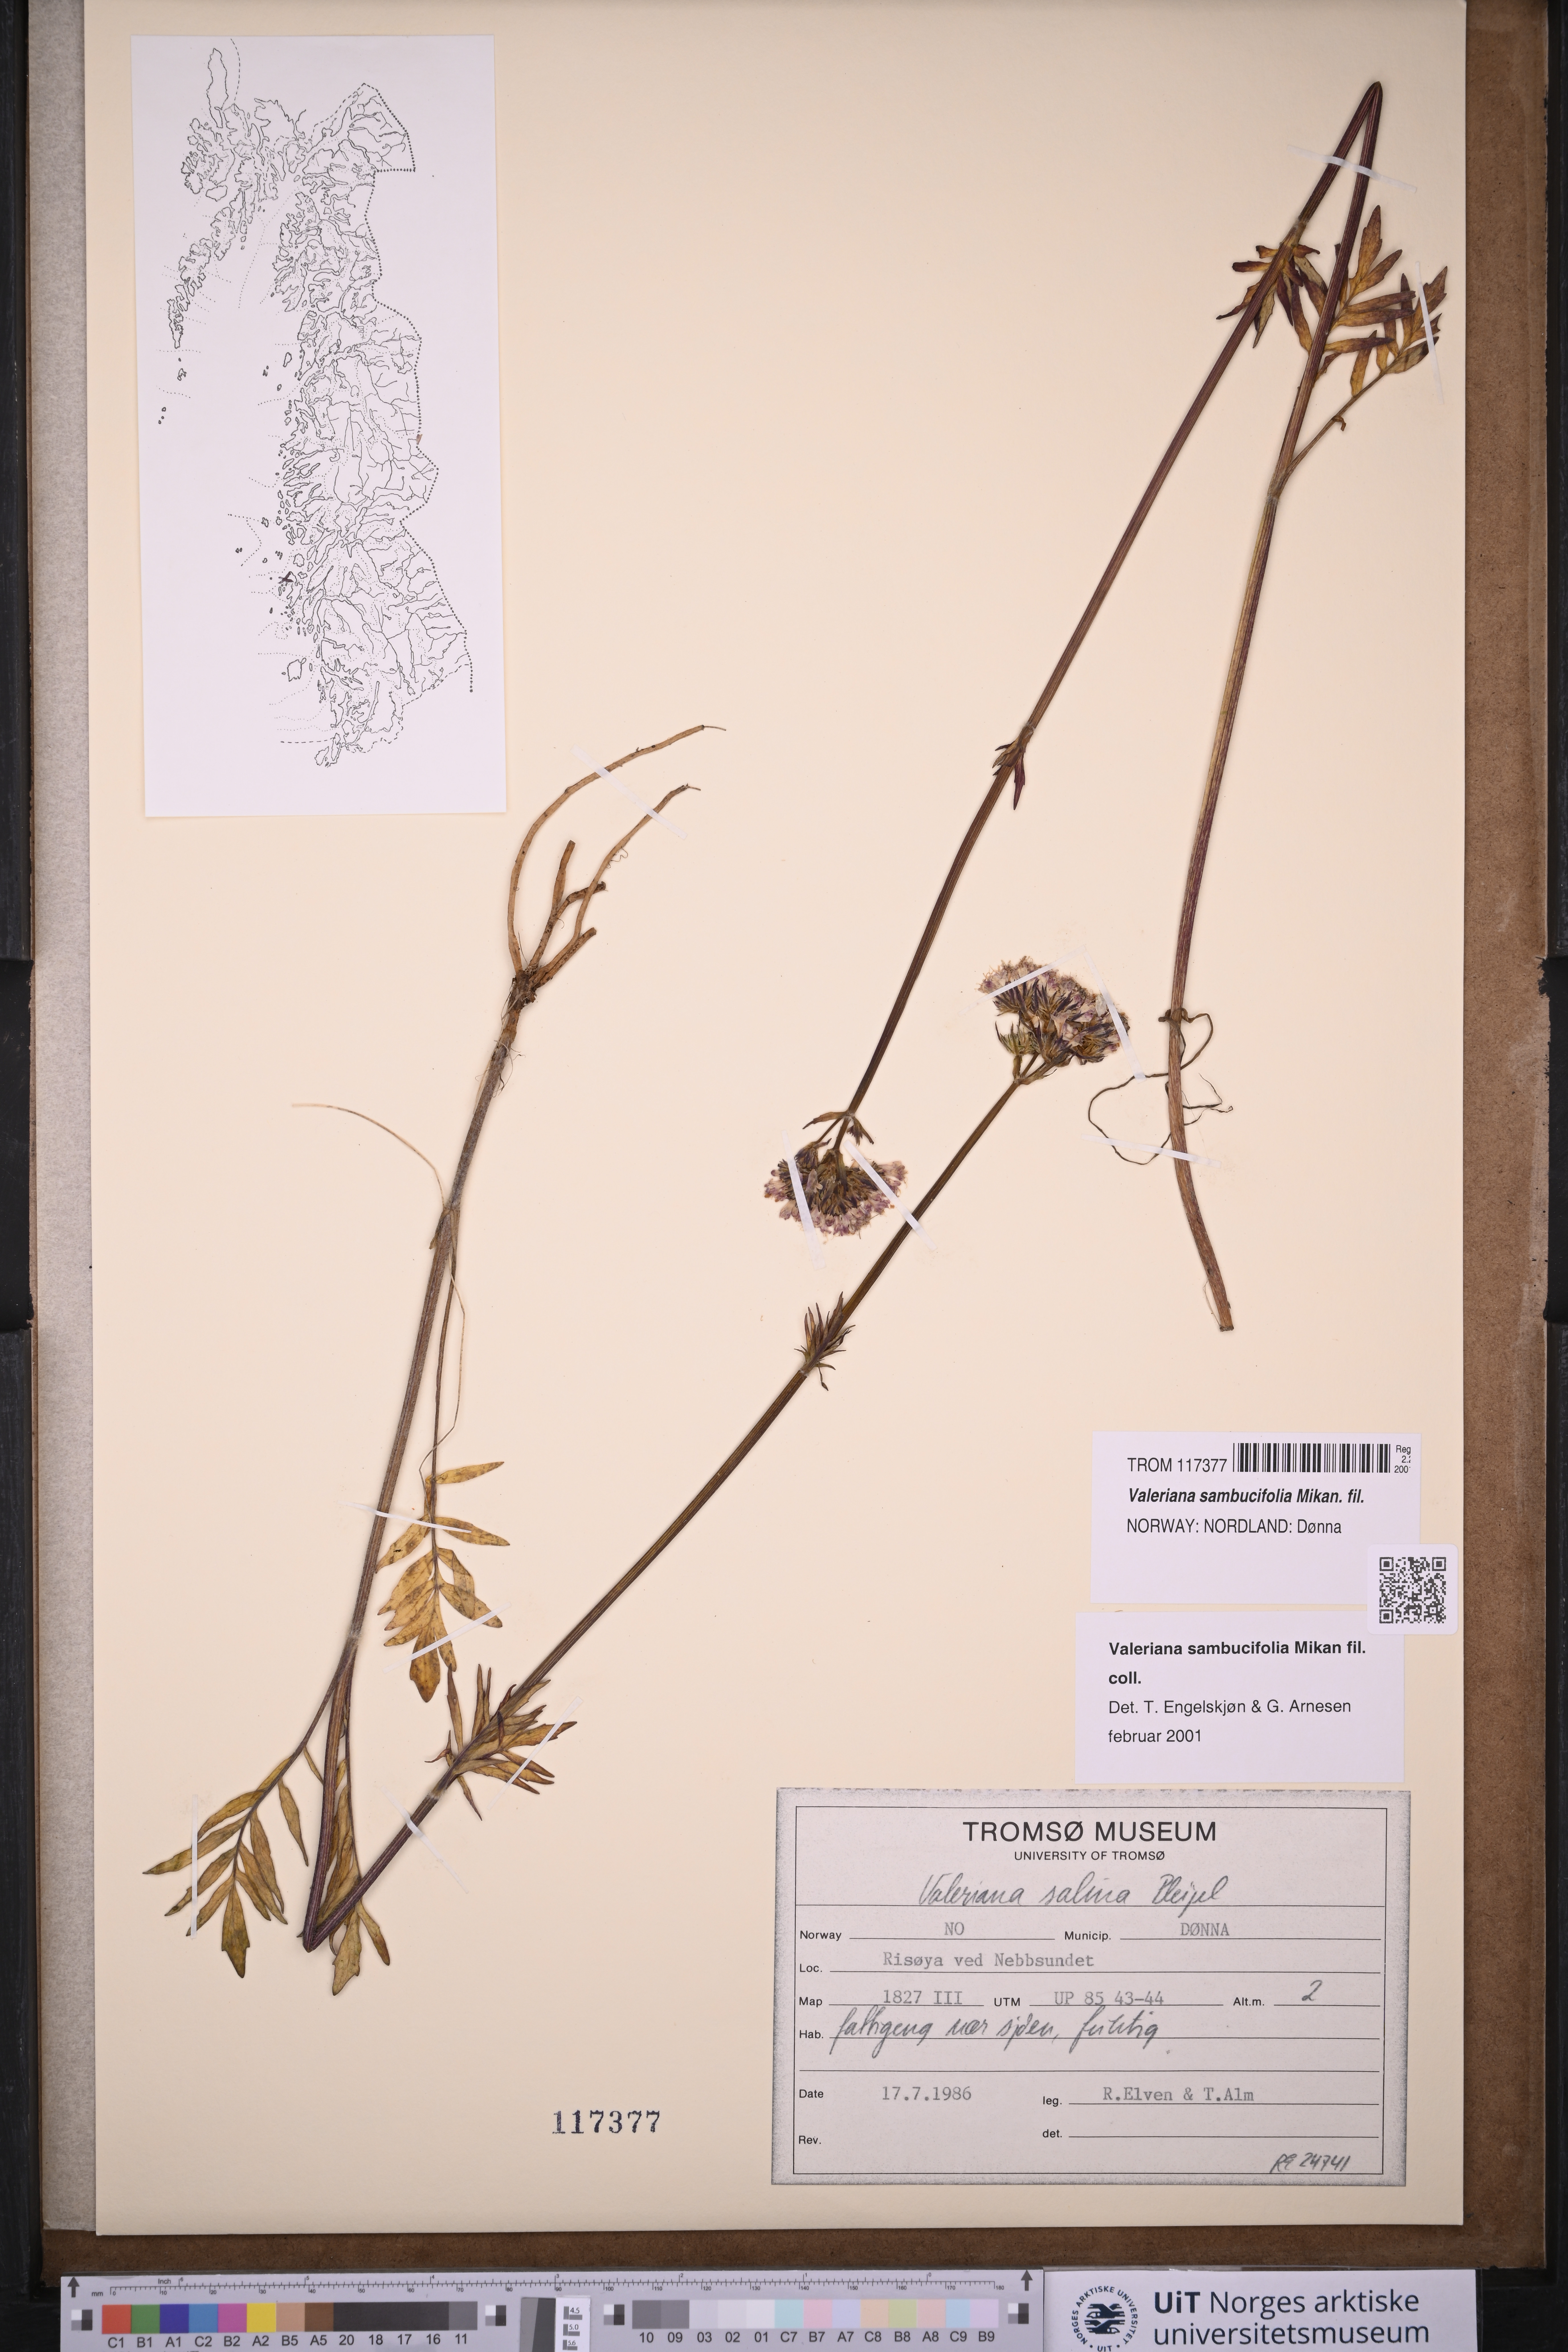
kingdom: Plantae
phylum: Tracheophyta
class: Magnoliopsida
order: Dipsacales
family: Caprifoliaceae
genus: Valeriana
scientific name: Valeriana excelsa
